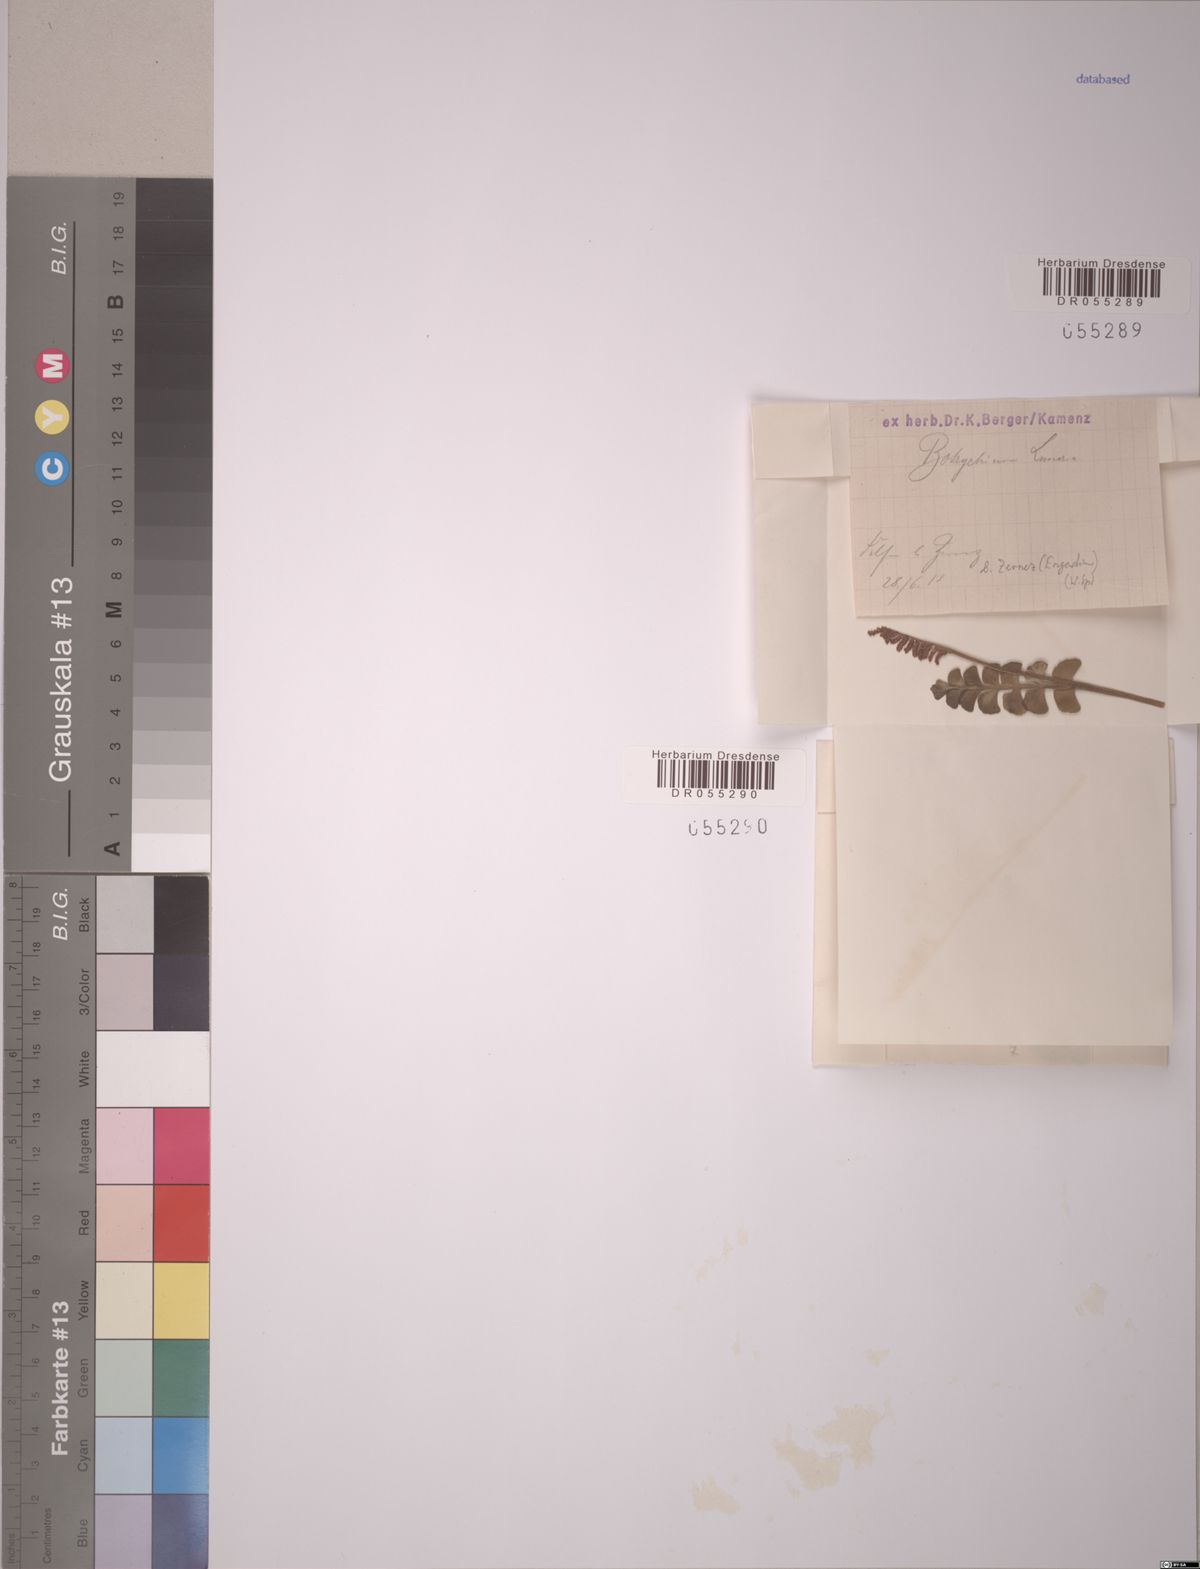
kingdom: Plantae
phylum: Tracheophyta
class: Polypodiopsida
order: Ophioglossales
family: Ophioglossaceae
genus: Botrychium
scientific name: Botrychium lunaria
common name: Moonwort
